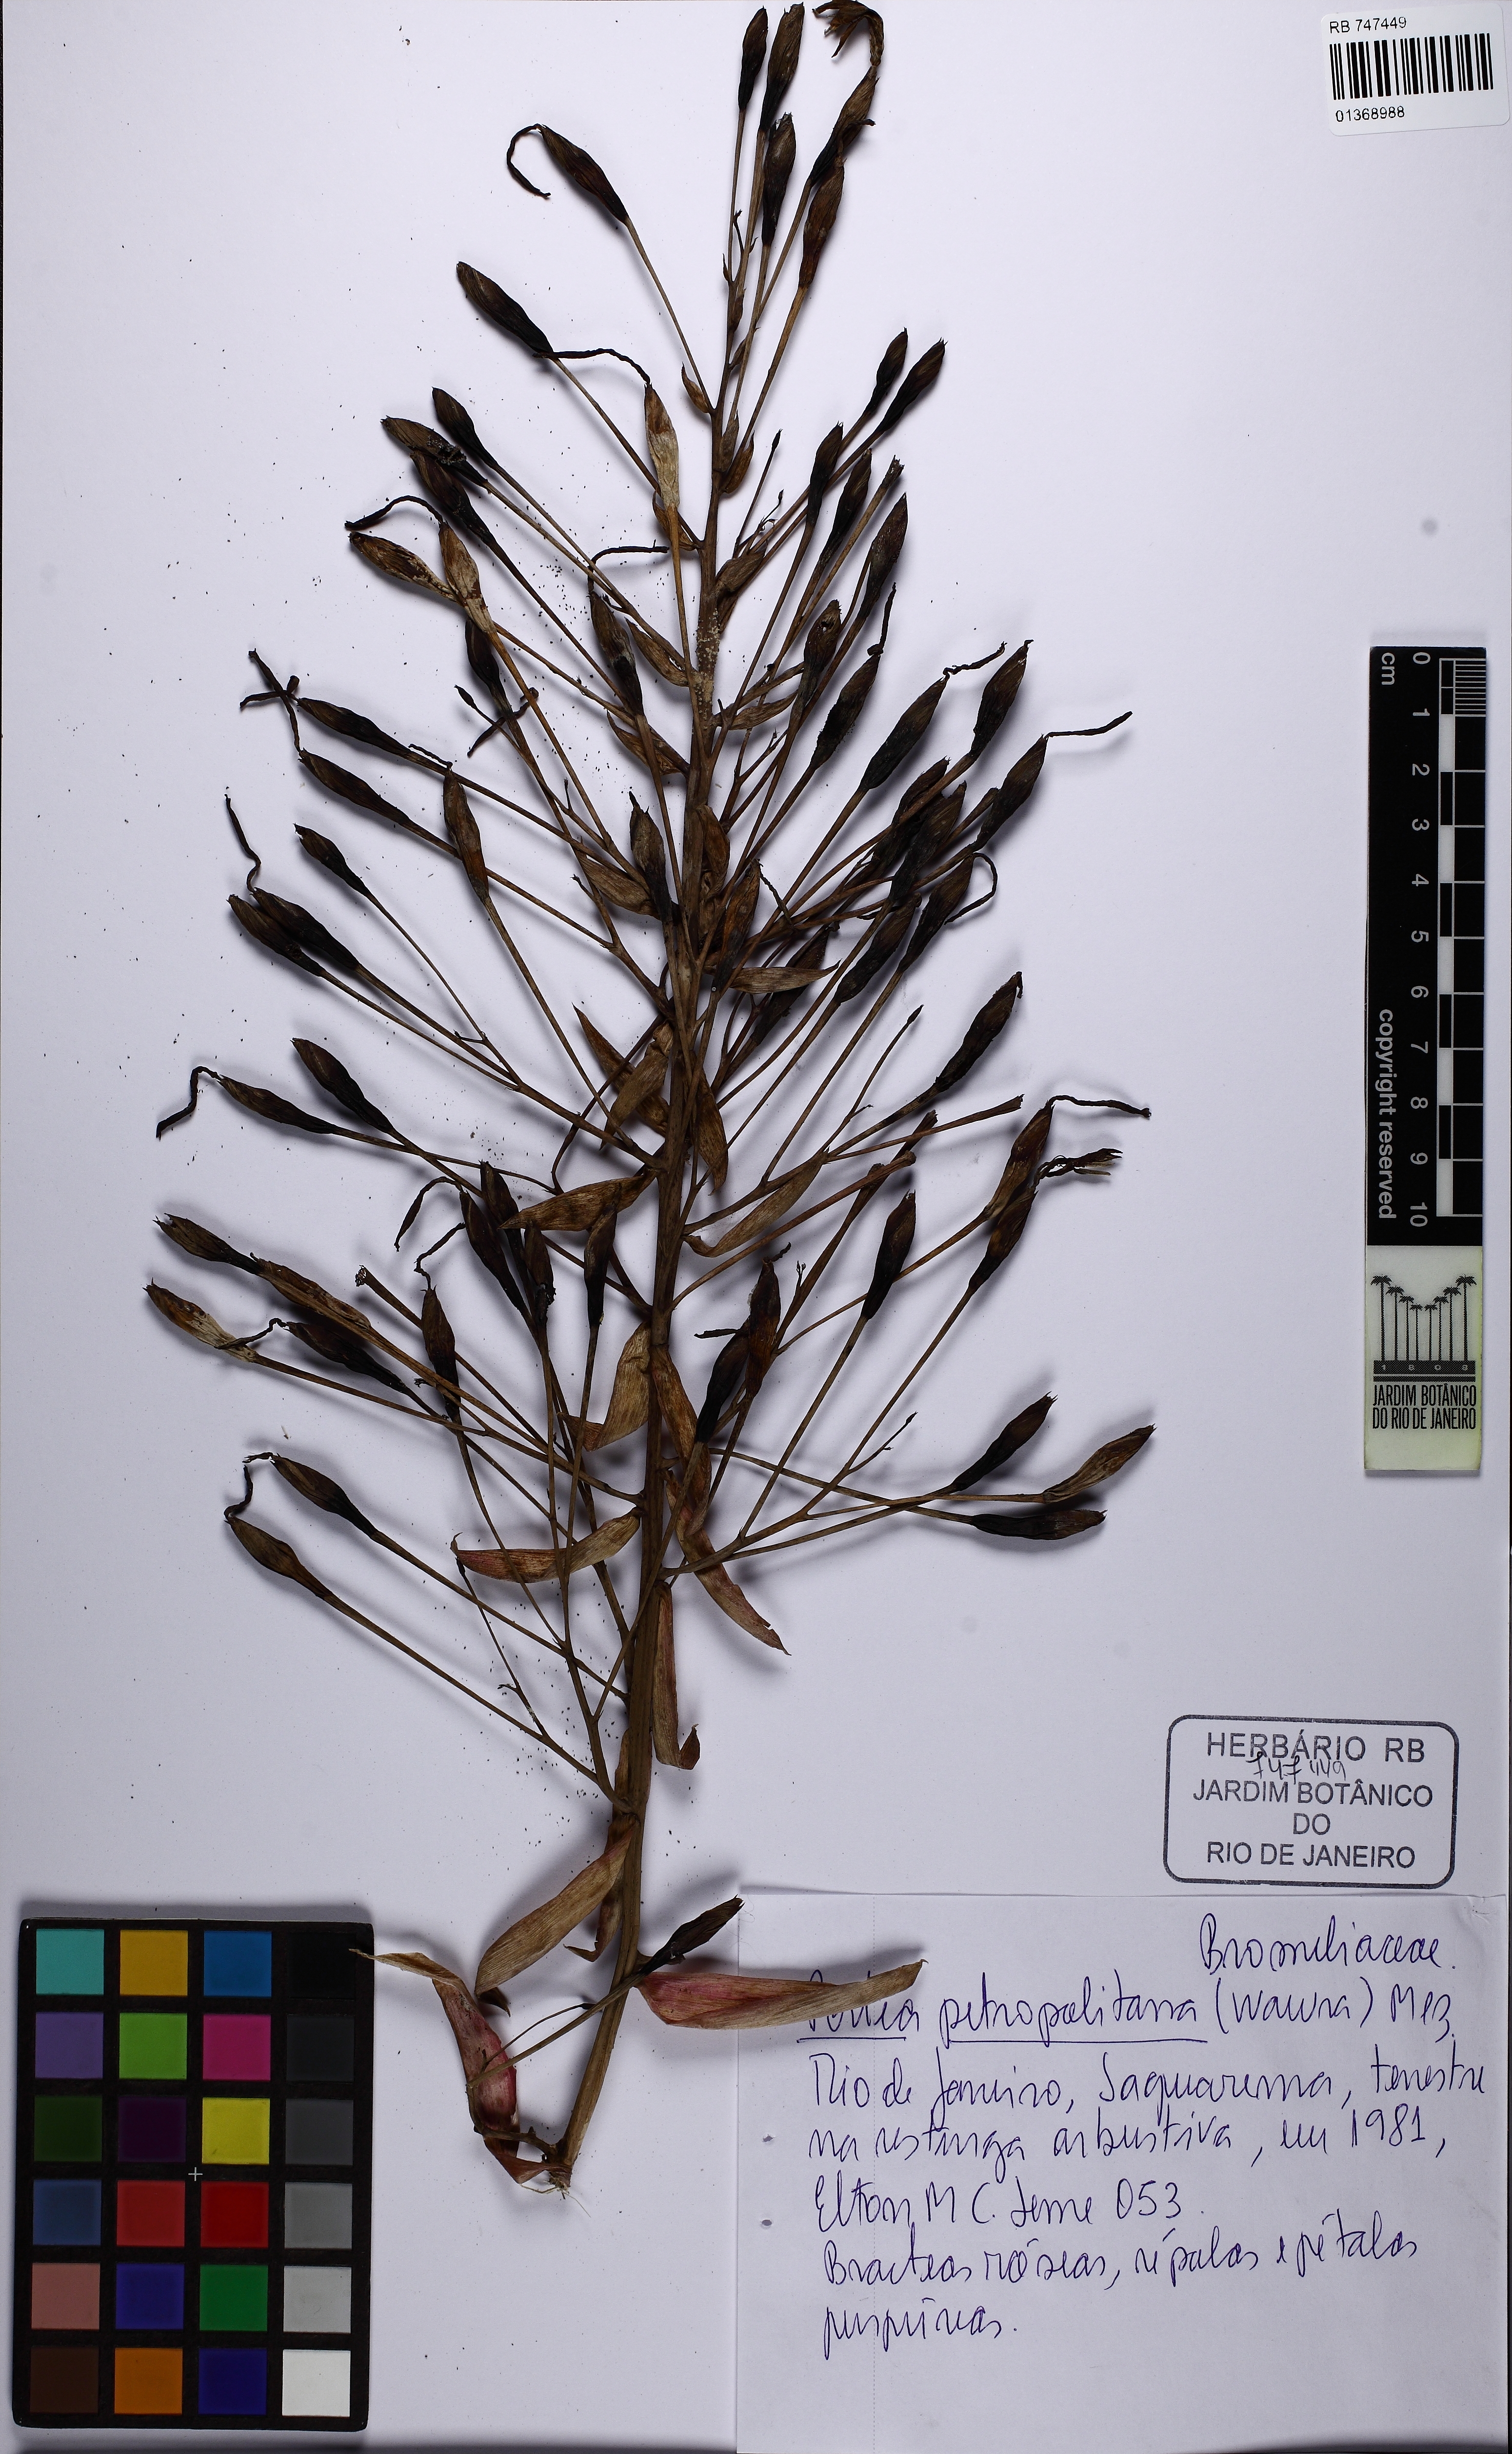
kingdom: Plantae
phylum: Tracheophyta
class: Liliopsida
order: Poales
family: Bromeliaceae
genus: Portea
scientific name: Portea petropolitana
